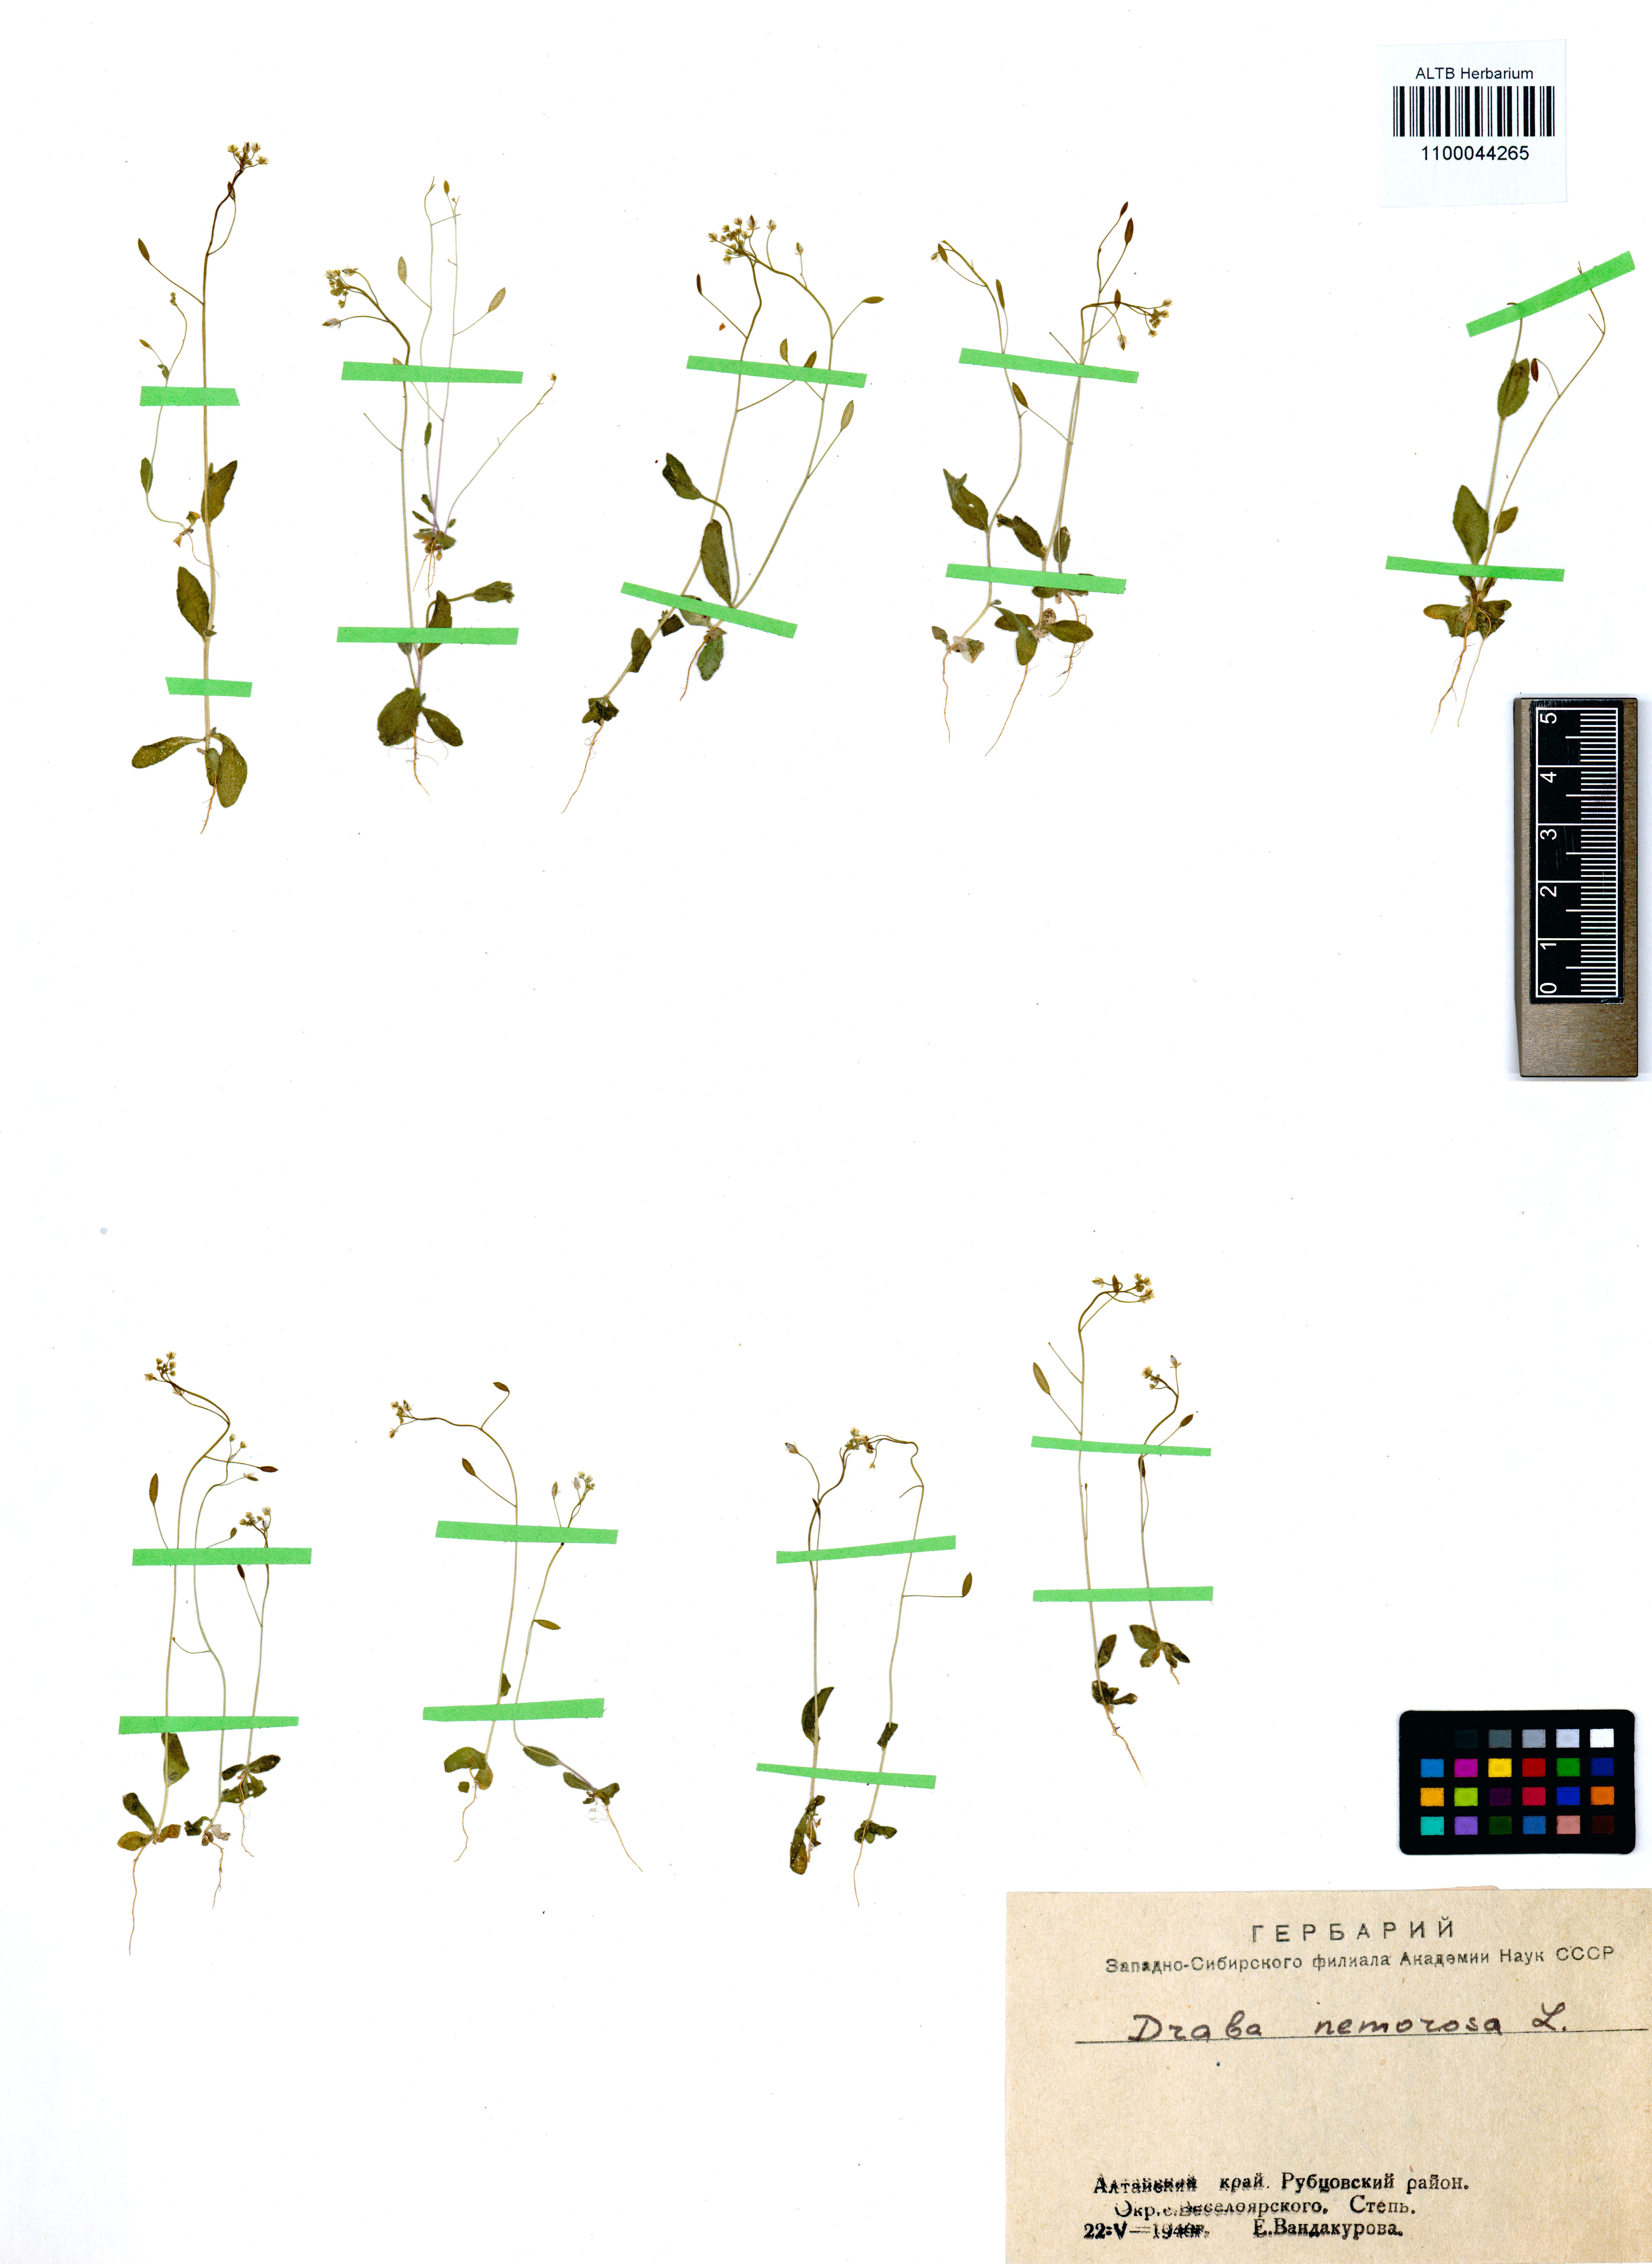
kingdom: Plantae
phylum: Tracheophyta
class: Magnoliopsida
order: Brassicales
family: Brassicaceae
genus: Draba
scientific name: Draba nemorosa
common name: Wood whitlow-grass
